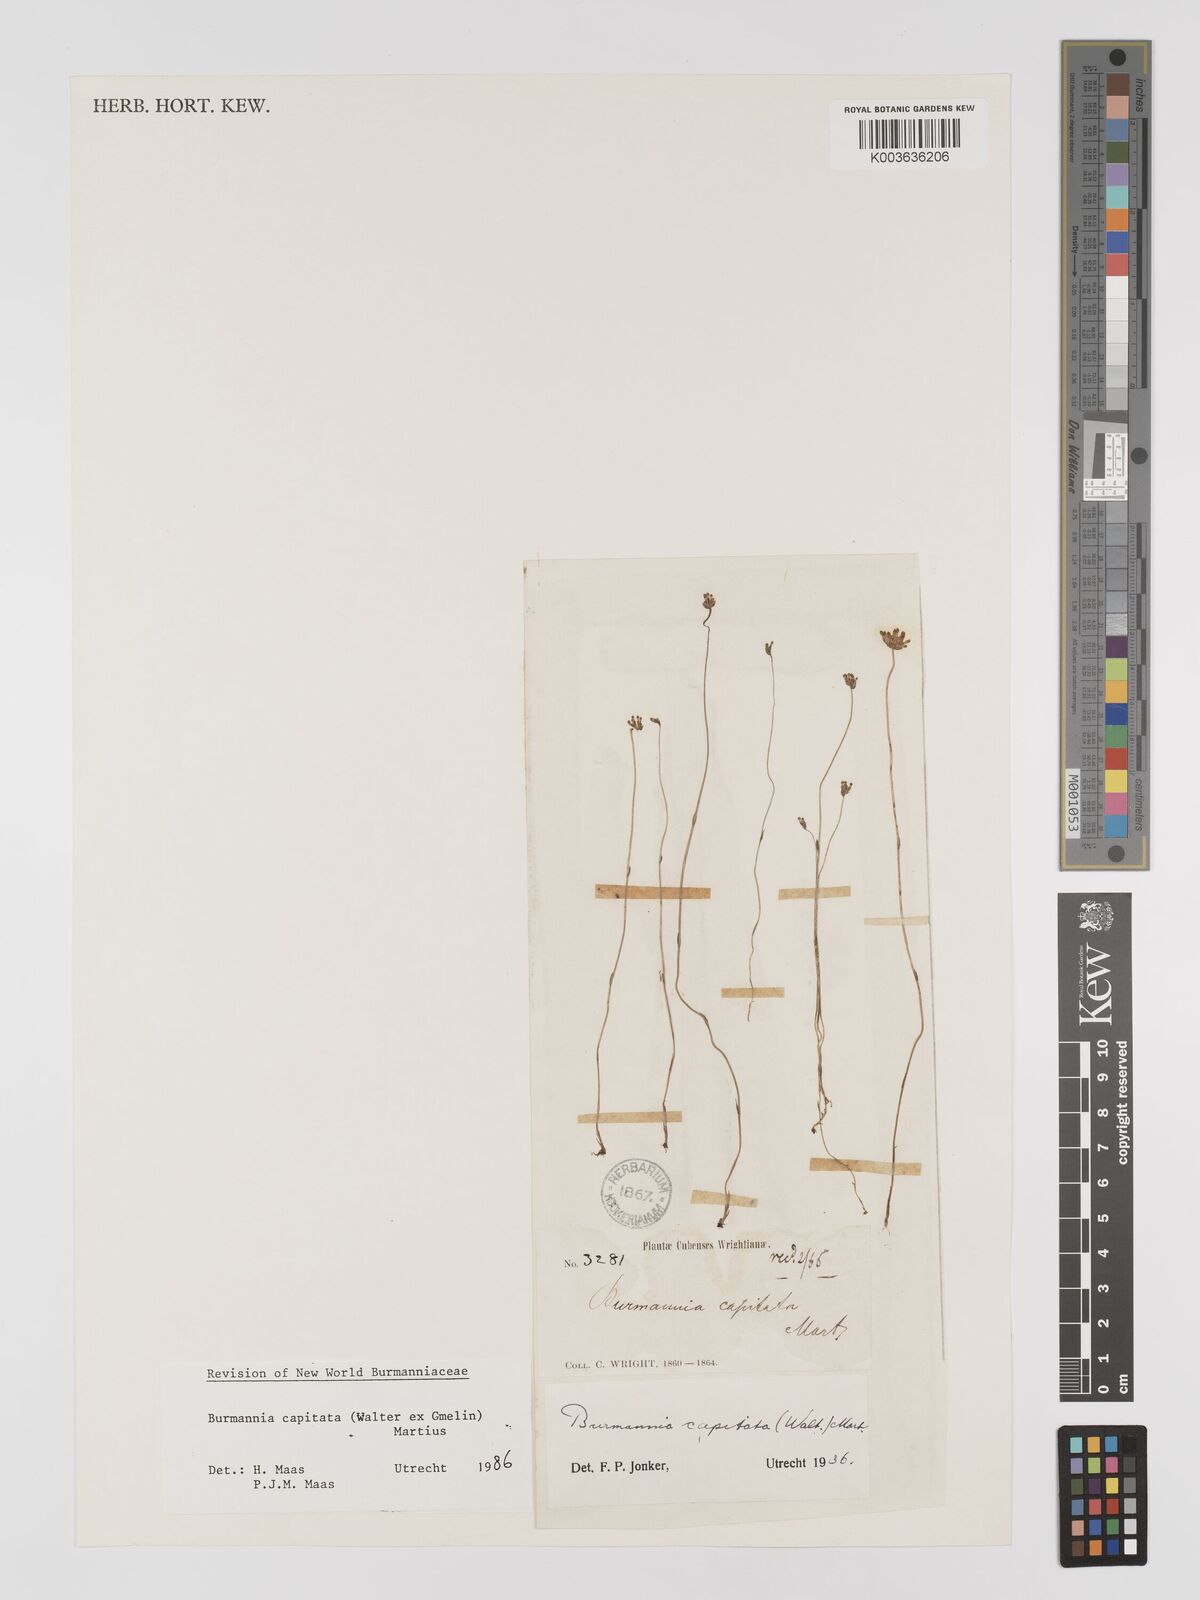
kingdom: Plantae
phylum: Tracheophyta
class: Liliopsida
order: Dioscoreales
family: Burmanniaceae
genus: Burmannia
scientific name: Burmannia capitata
